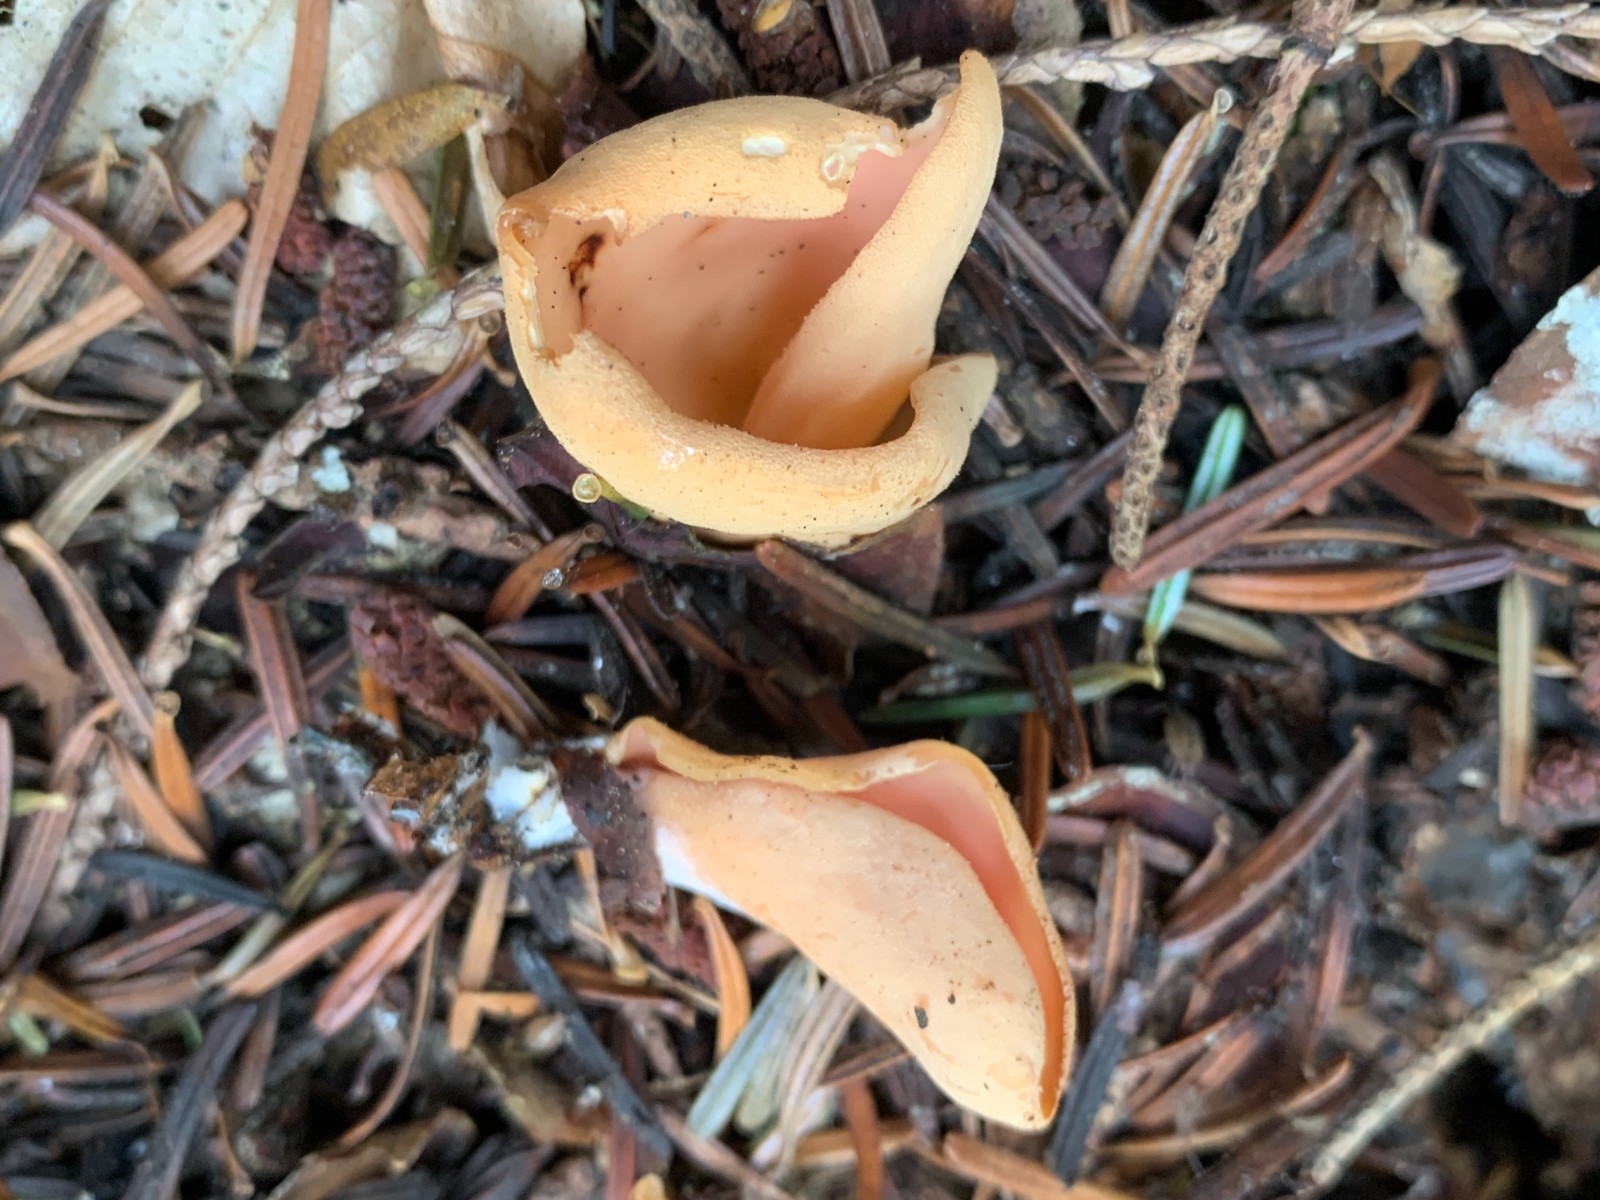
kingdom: Fungi
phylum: Ascomycota
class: Pezizomycetes
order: Pezizales
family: Otideaceae
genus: Otidea
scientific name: Otidea onotica
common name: æsel-ørebæger
